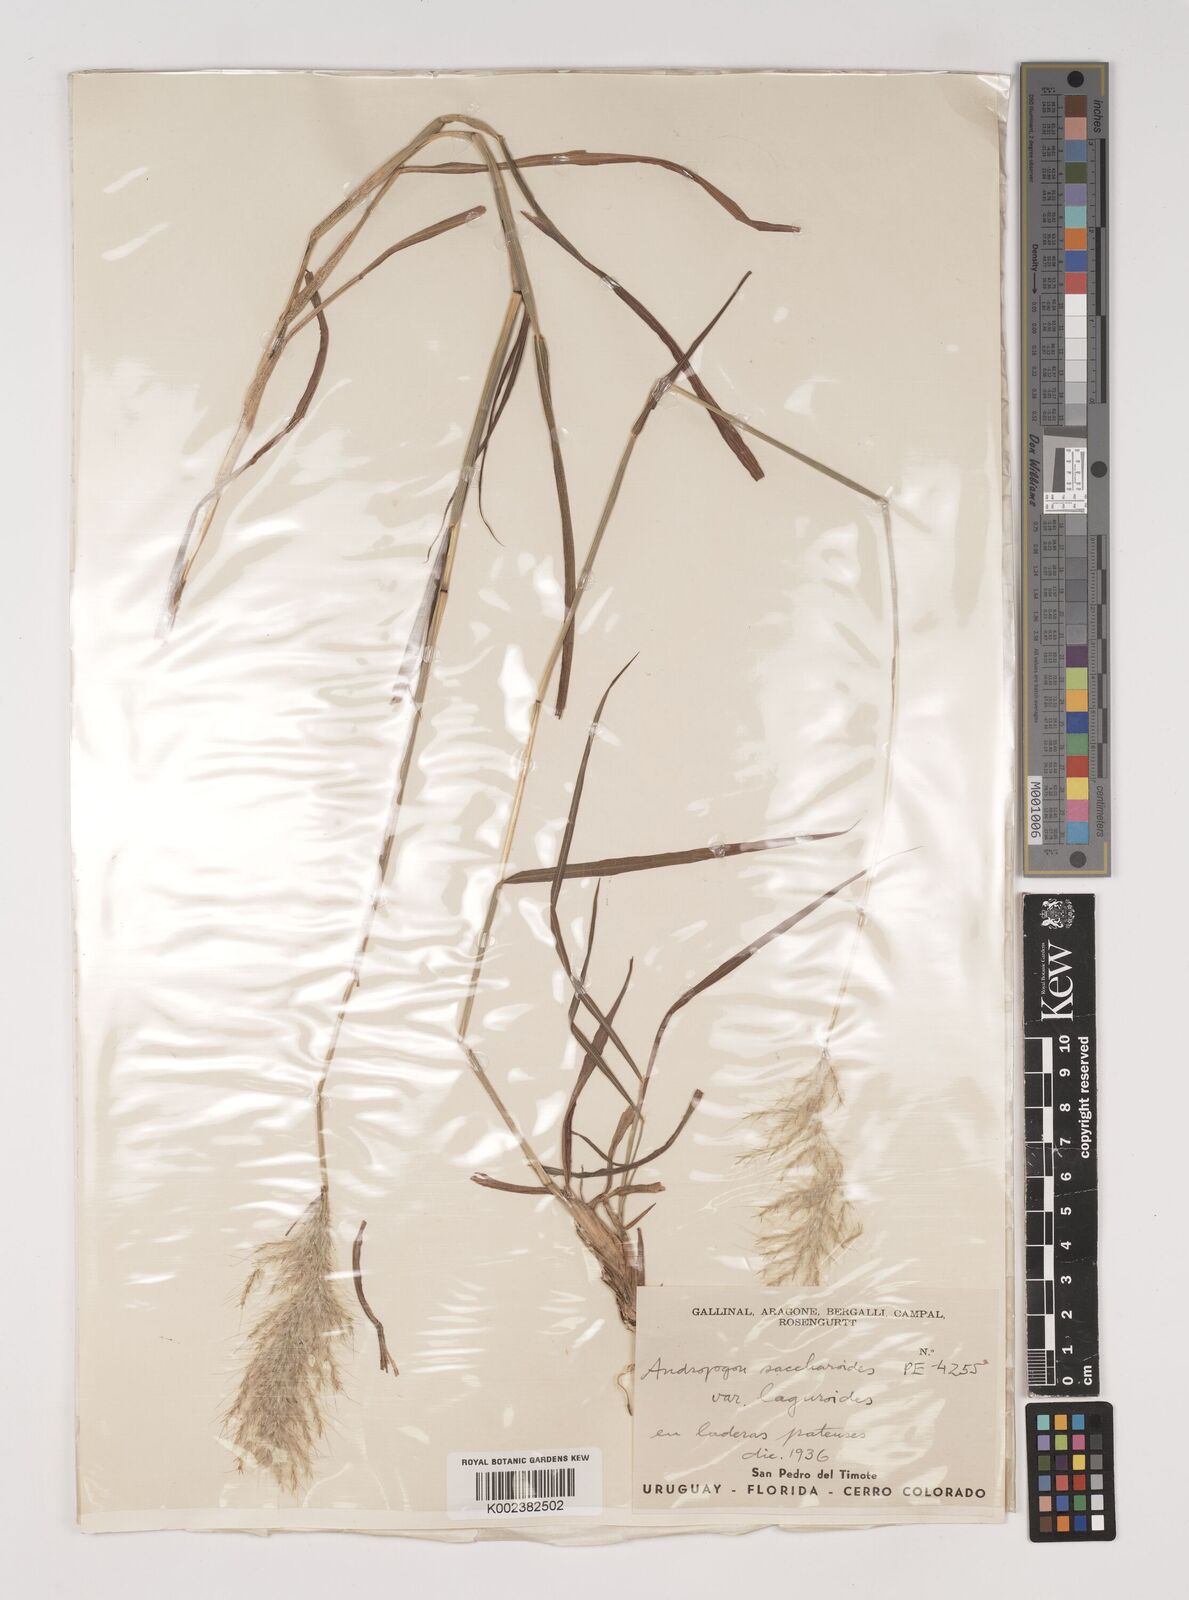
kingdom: Plantae
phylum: Tracheophyta
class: Liliopsida
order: Poales
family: Poaceae
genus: Bothriochloa
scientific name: Bothriochloa laguroides
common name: Silver bluestem
